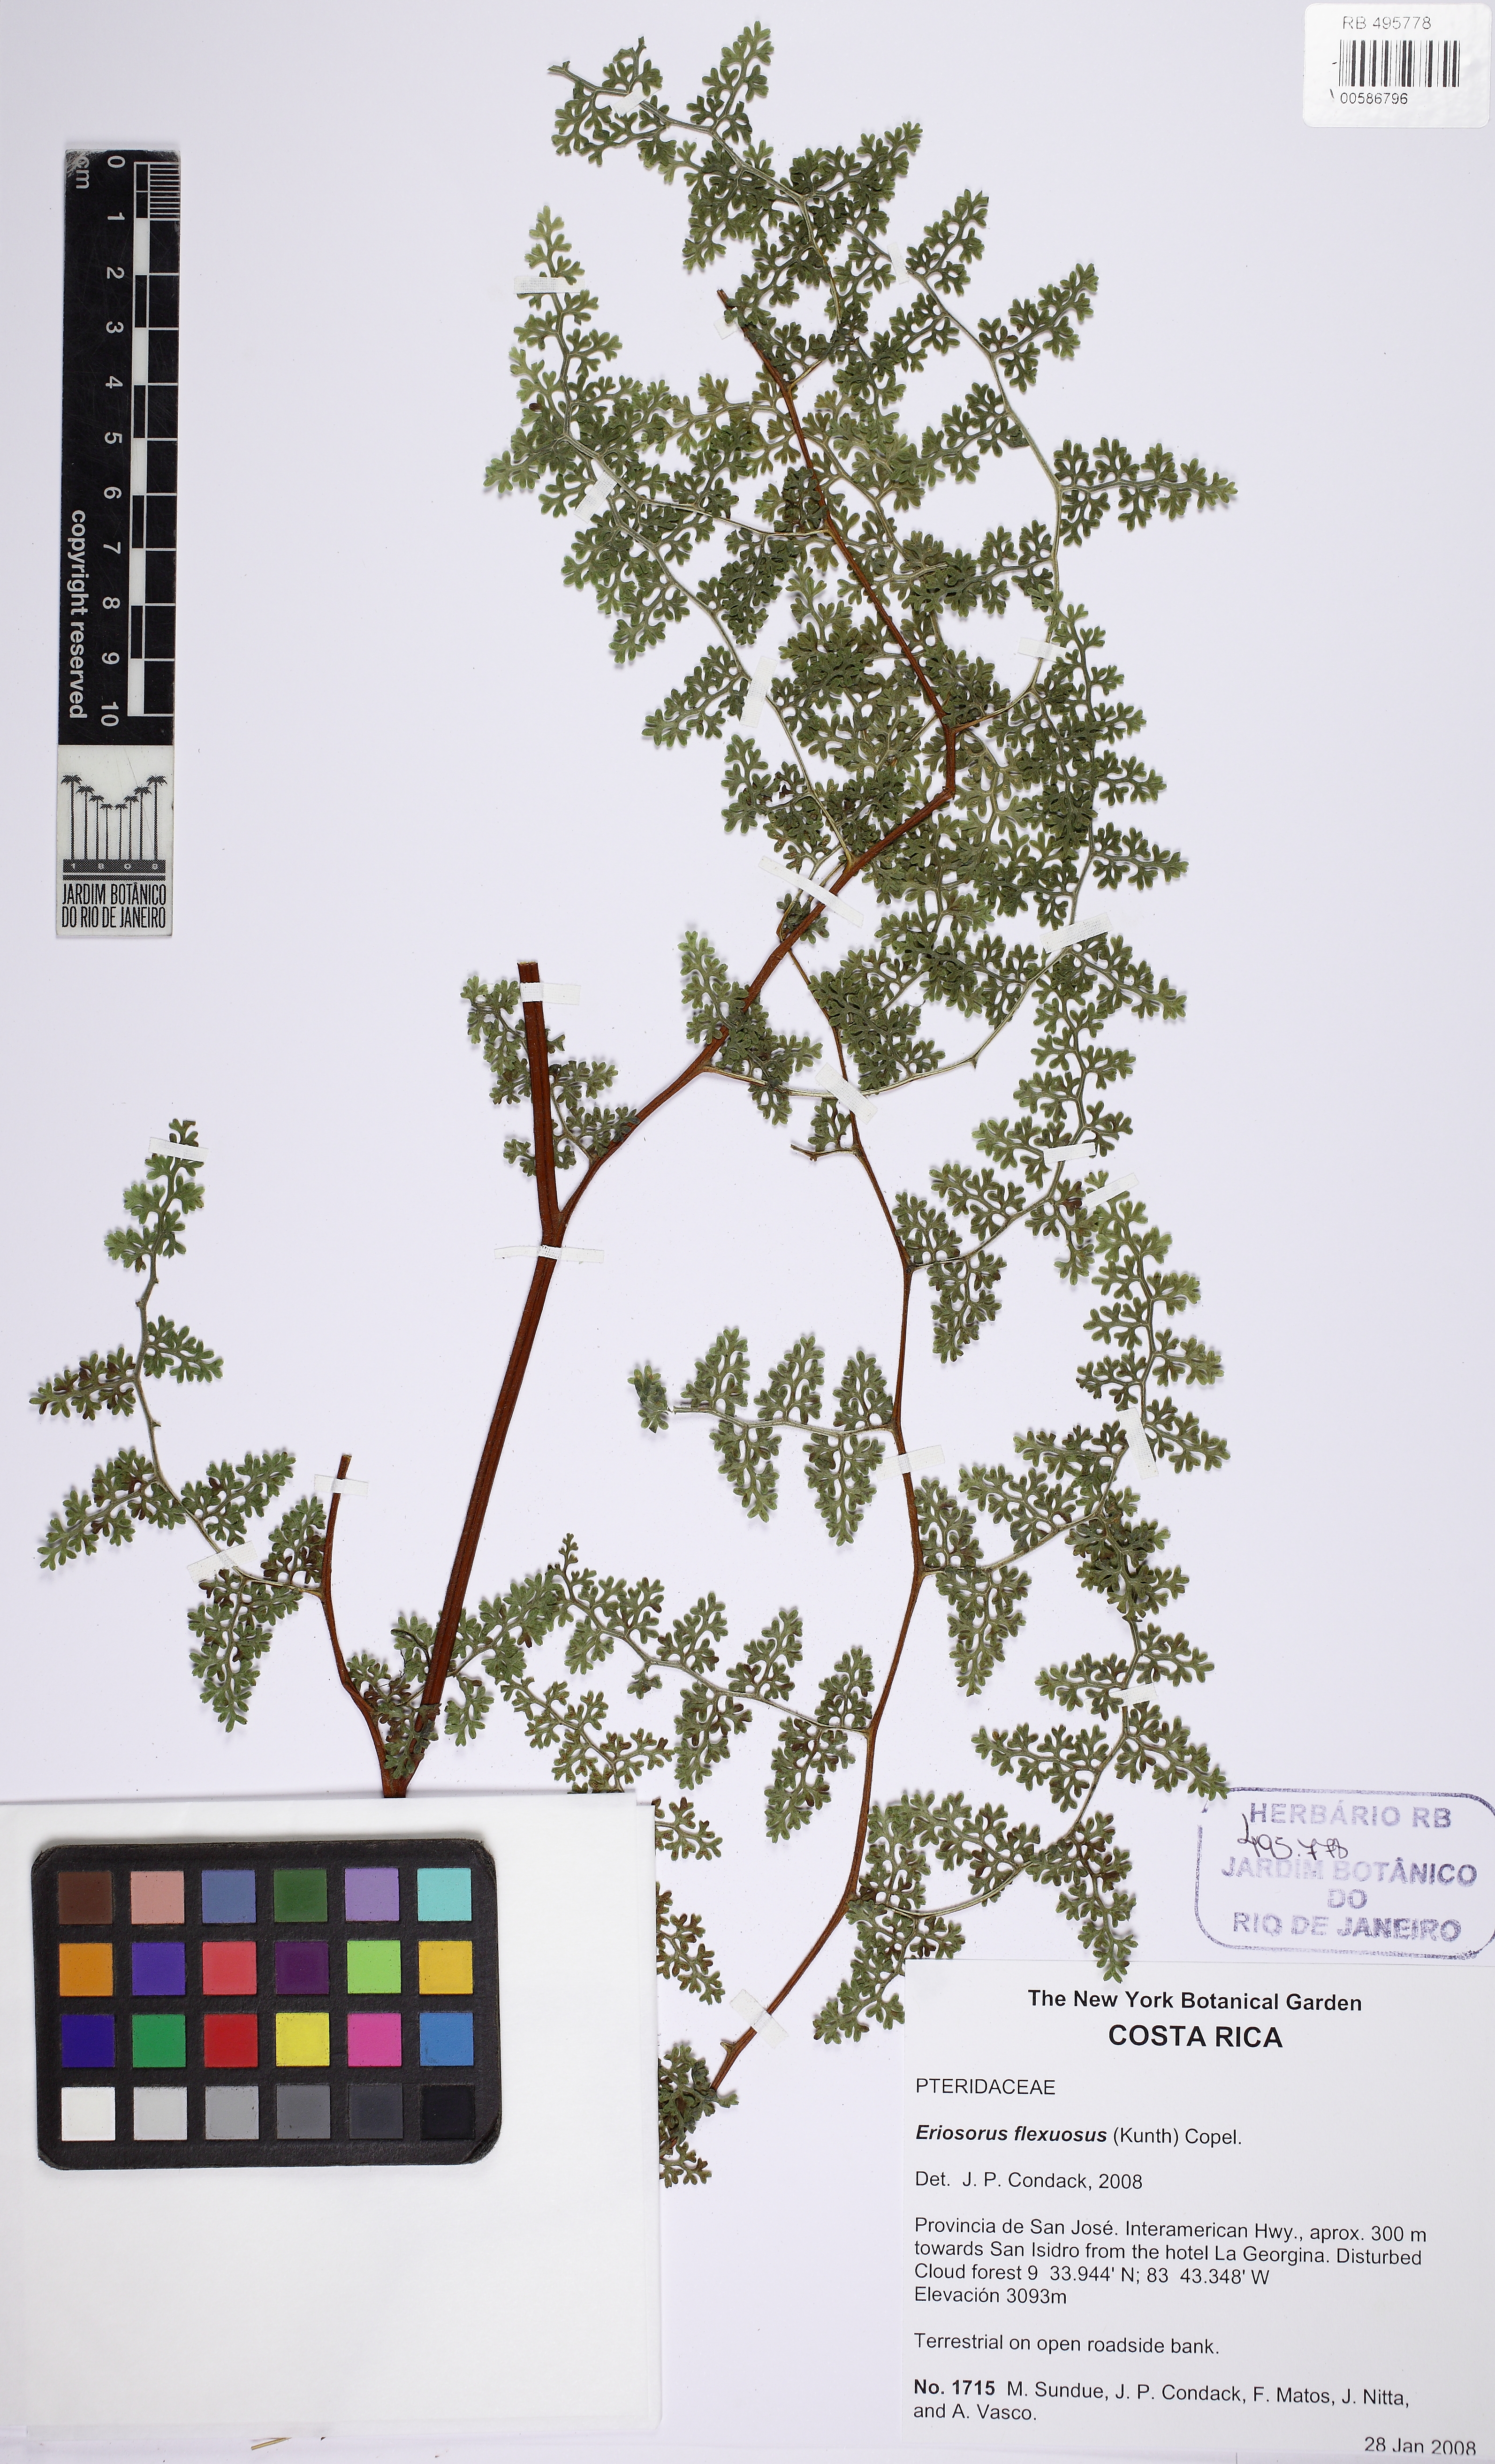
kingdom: Plantae
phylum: Tracheophyta
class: Polypodiopsida
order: Polypodiales
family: Pteridaceae
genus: Jamesonia
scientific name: Jamesonia flexuosa
